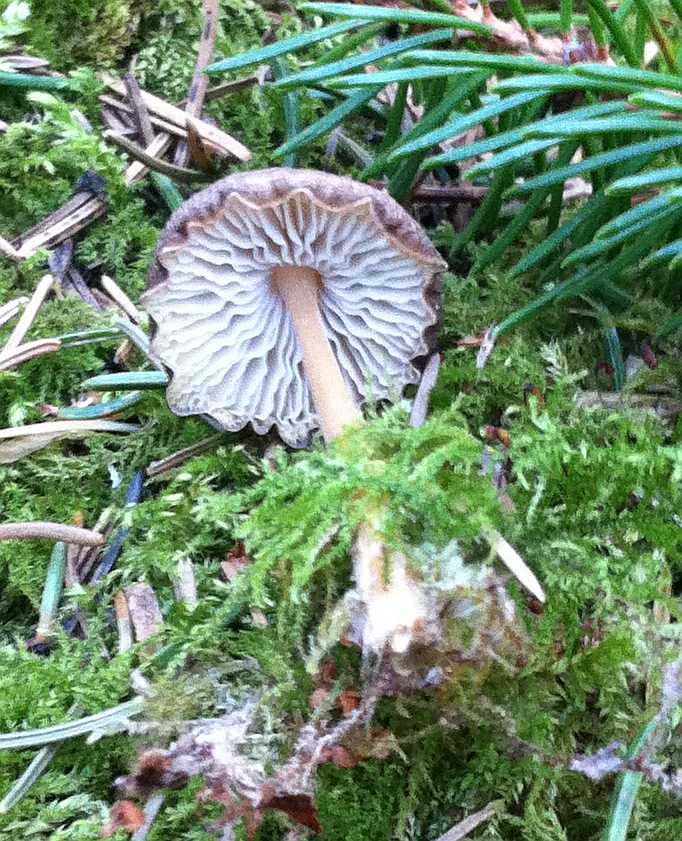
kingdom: Fungi
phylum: Basidiomycota
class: Agaricomycetes
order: Agaricales
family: Physalacriaceae
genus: Strobilurus
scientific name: Strobilurus esculentus
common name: gran-koglehat
